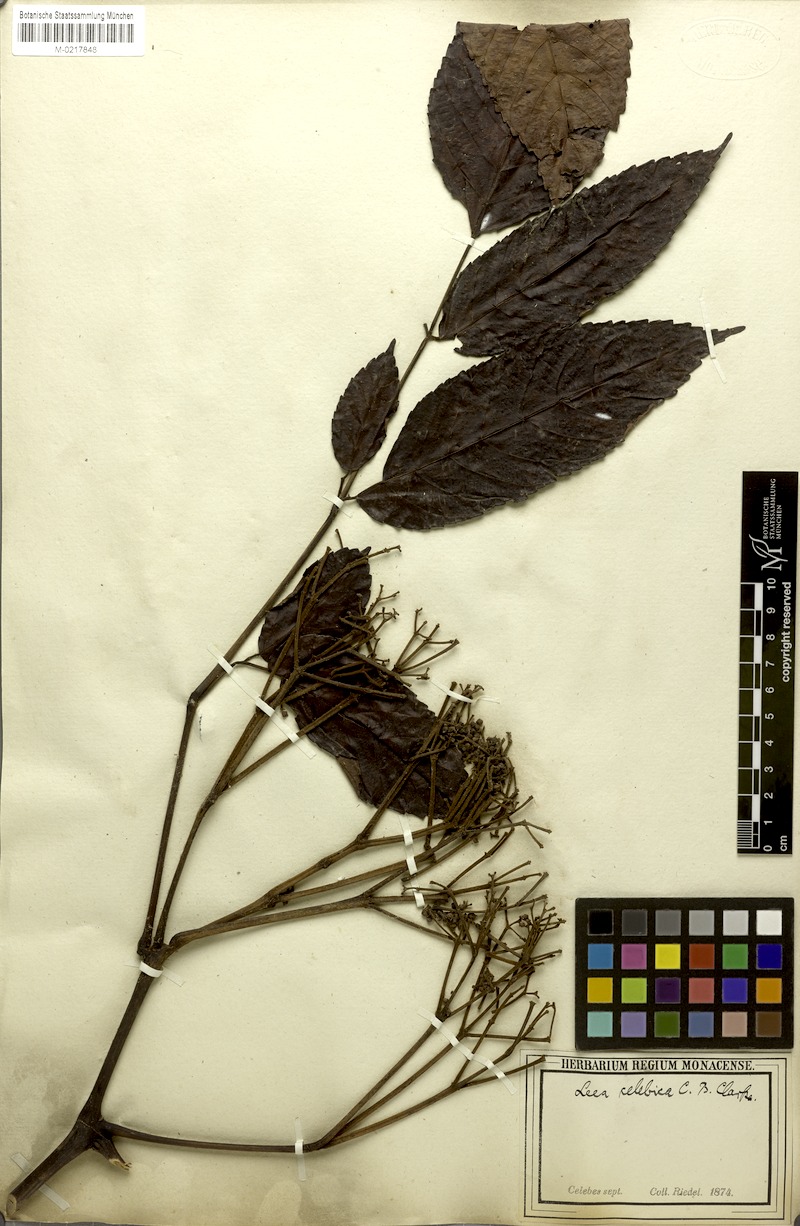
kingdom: Plantae
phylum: Tracheophyta
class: Magnoliopsida
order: Vitales
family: Vitaceae
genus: Leea
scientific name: Leea indica
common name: Bandicoot-berry
